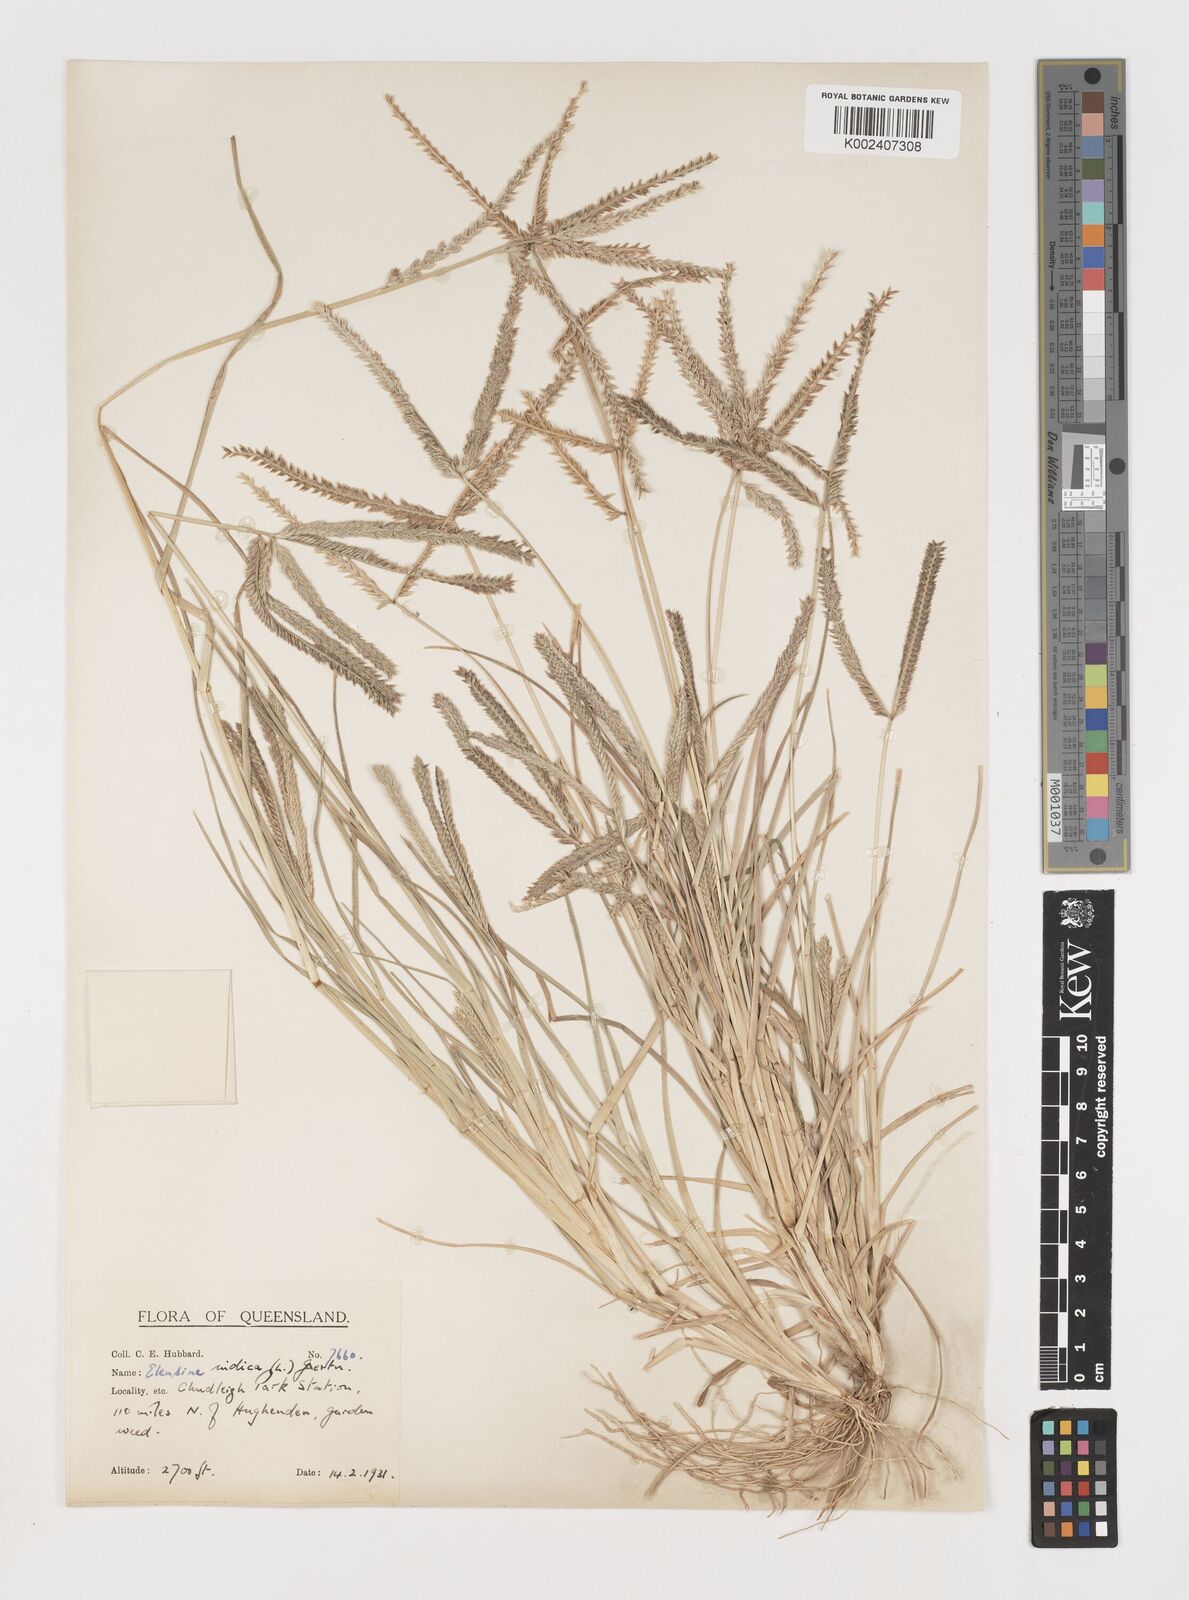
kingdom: Plantae
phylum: Tracheophyta
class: Liliopsida
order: Poales
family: Poaceae
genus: Eleusine
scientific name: Eleusine indica
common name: Yard-grass
